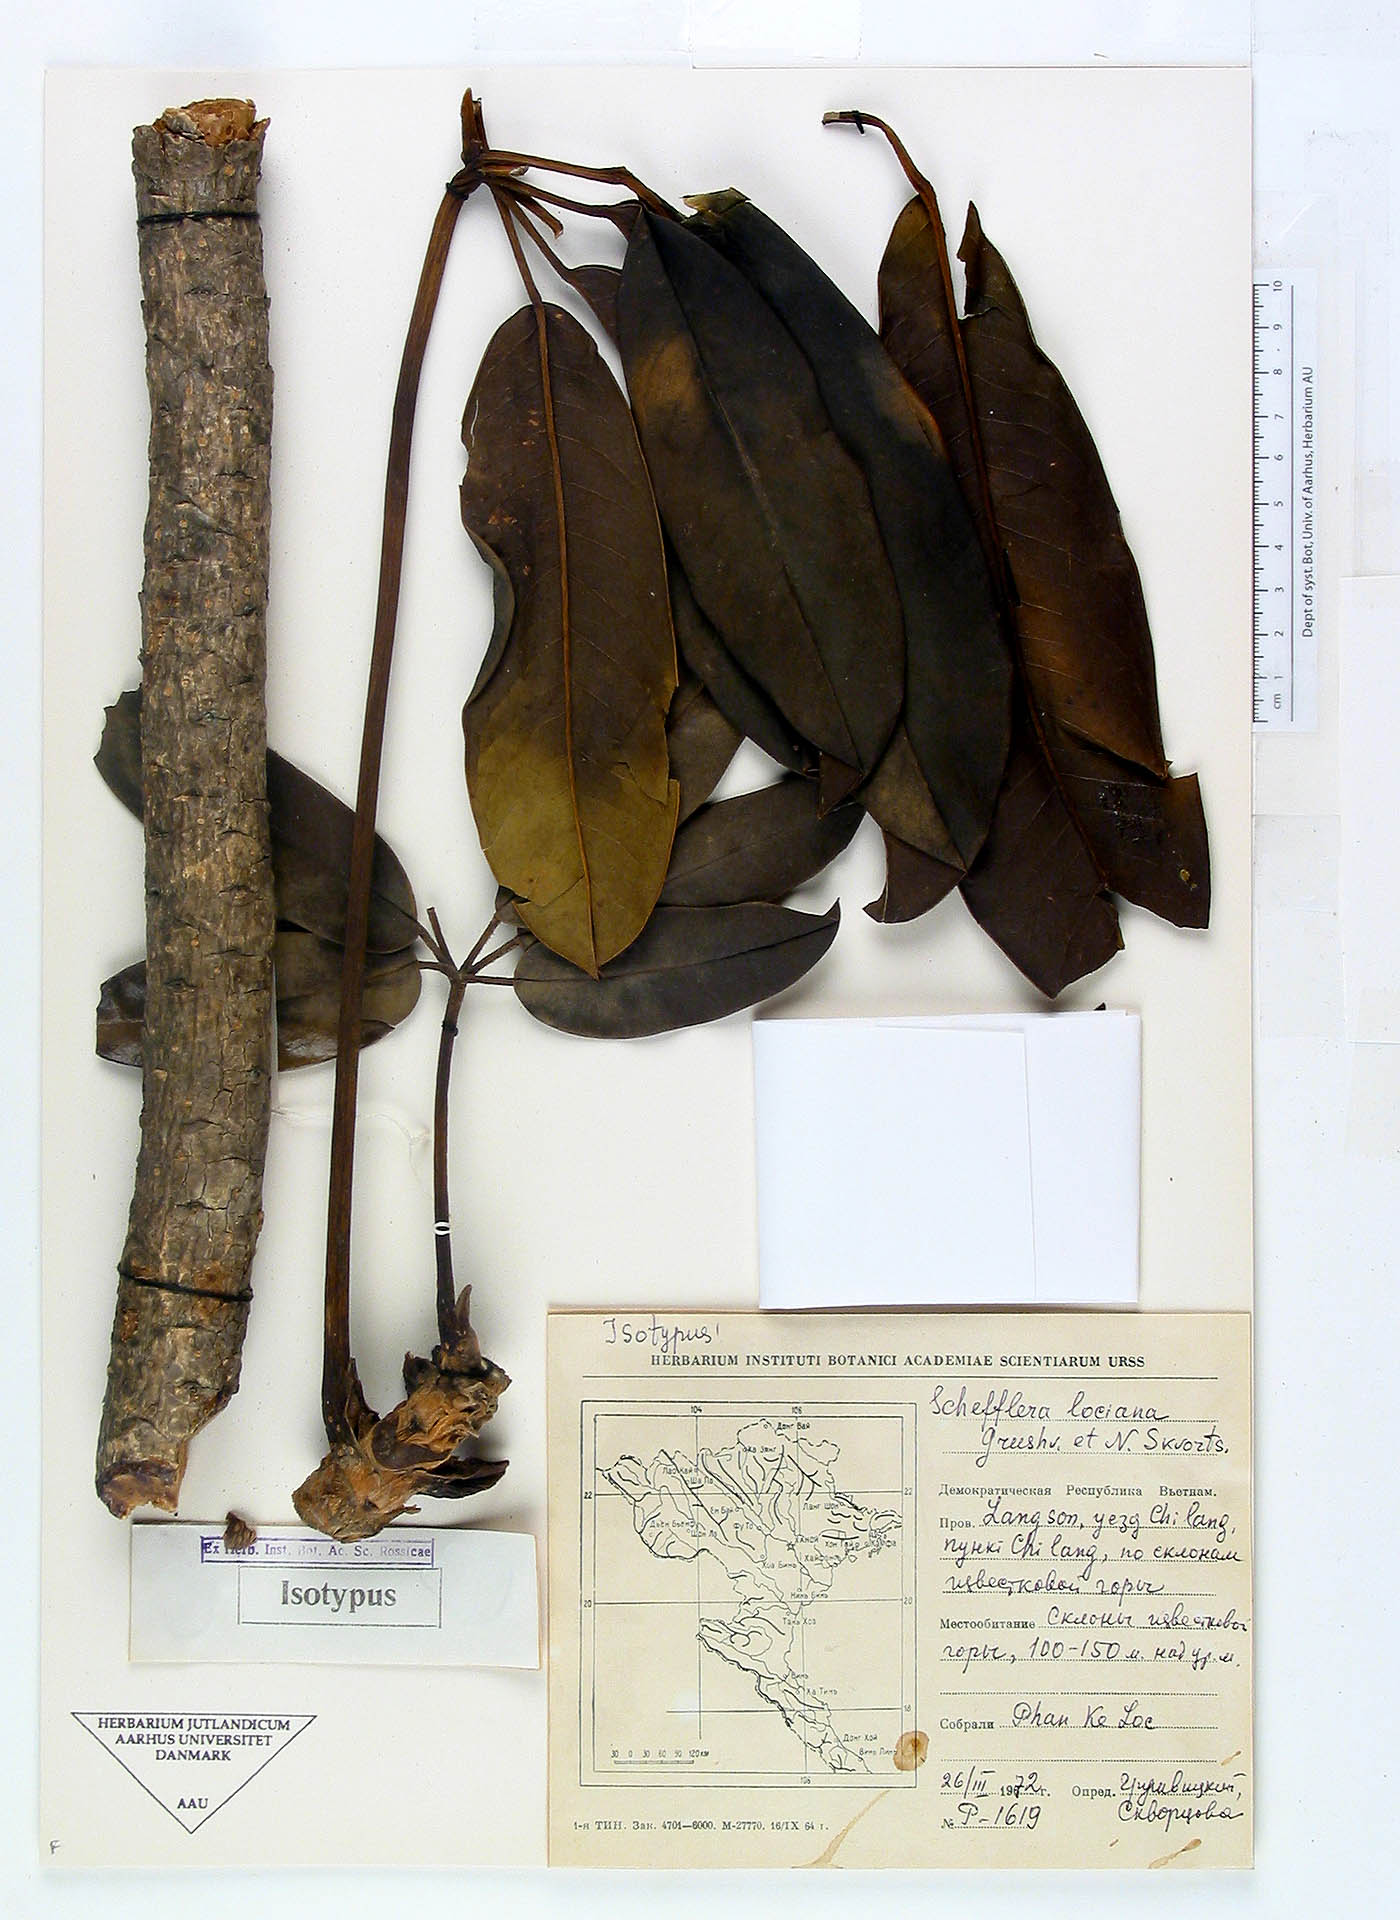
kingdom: Plantae
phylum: Tracheophyta
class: Magnoliopsida
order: Apiales
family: Araliaceae
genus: Heptapleurum
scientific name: Heptapleurum locianum
